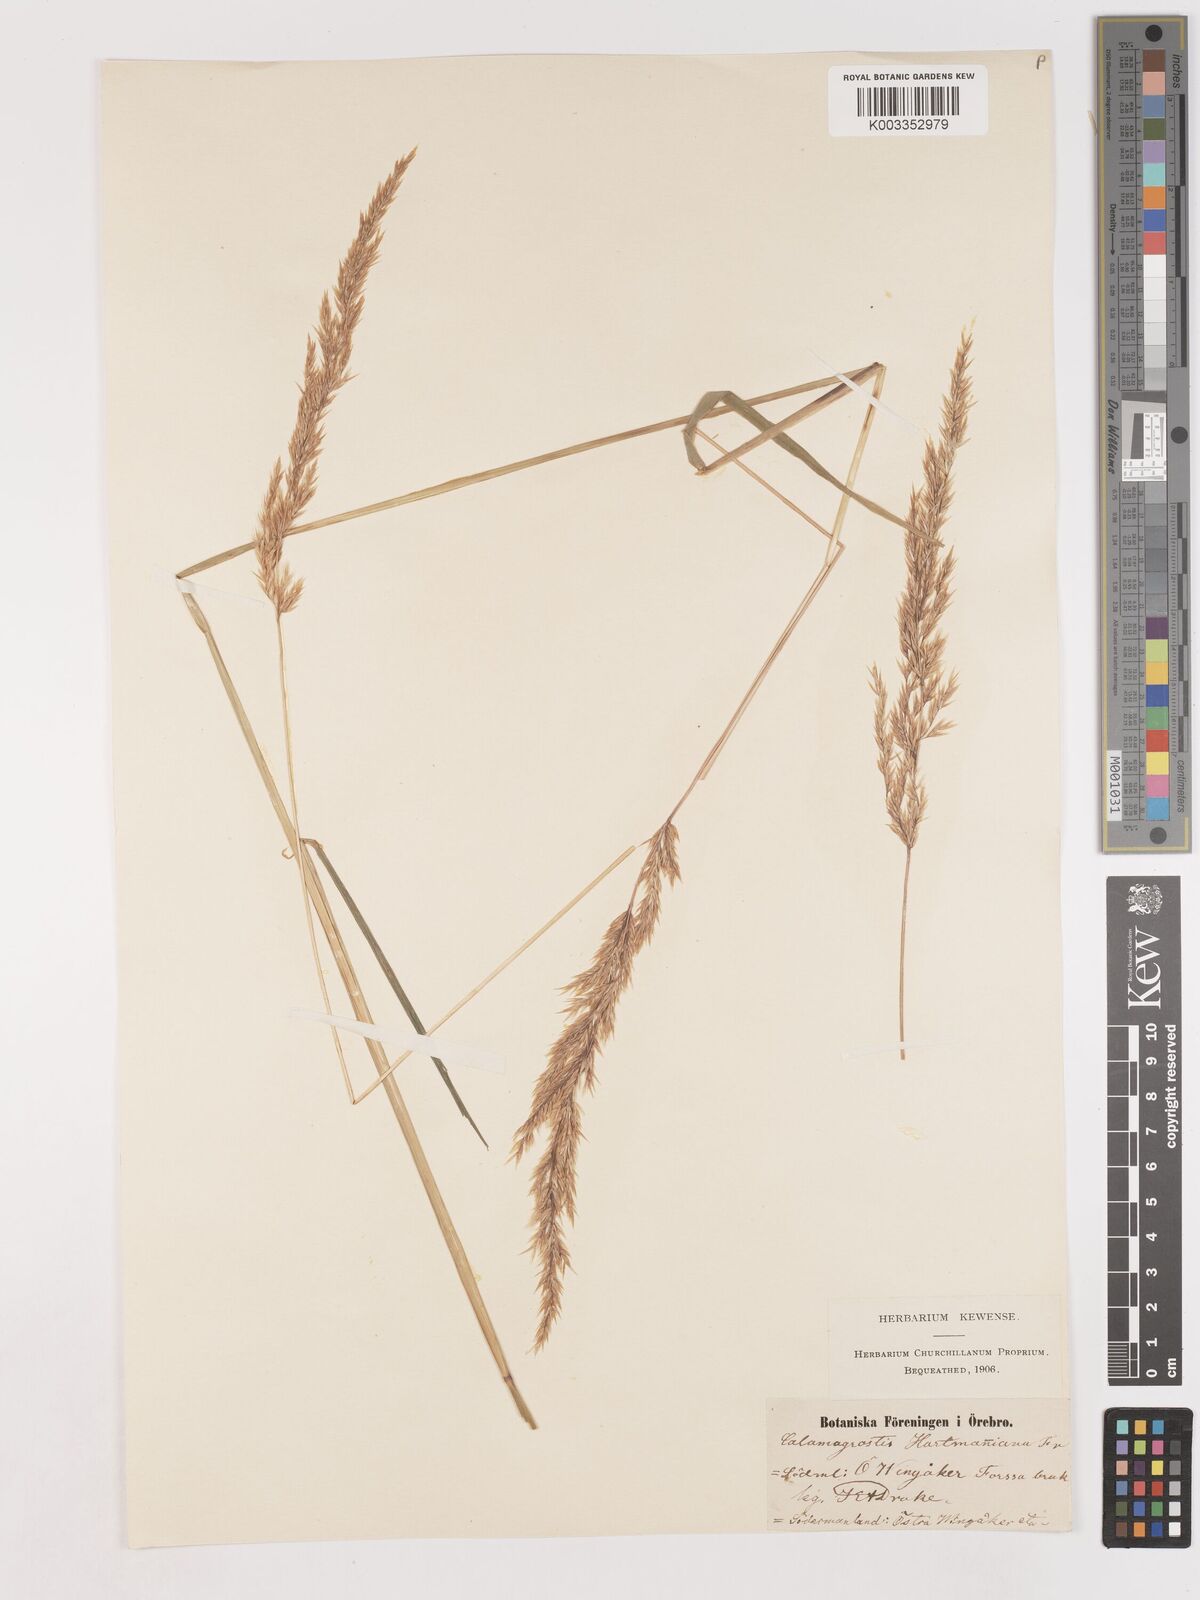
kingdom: Plantae
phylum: Tracheophyta
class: Liliopsida
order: Poales
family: Poaceae
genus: Calamagrostis
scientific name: Calamagrostis canescens
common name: Purple small-reed
